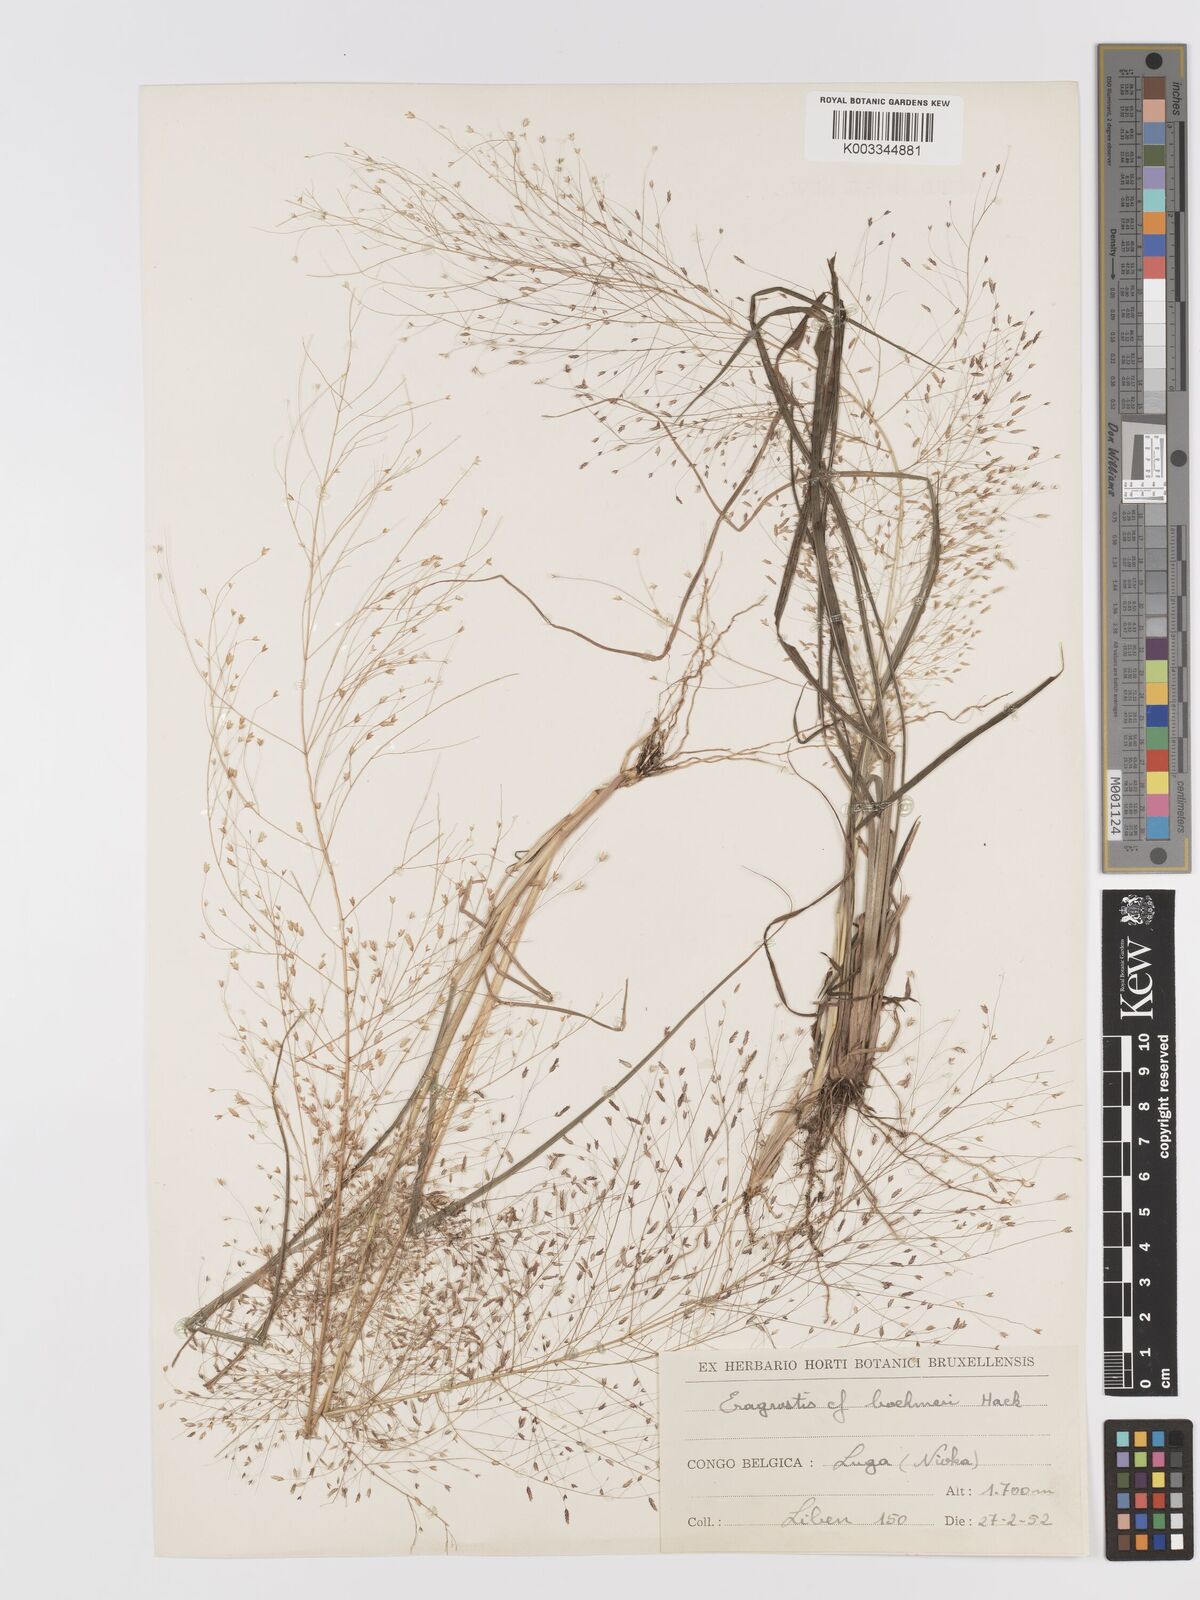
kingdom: Plantae
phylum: Tracheophyta
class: Liliopsida
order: Poales
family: Poaceae
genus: Eragrostis
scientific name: Eragrostis aspera
